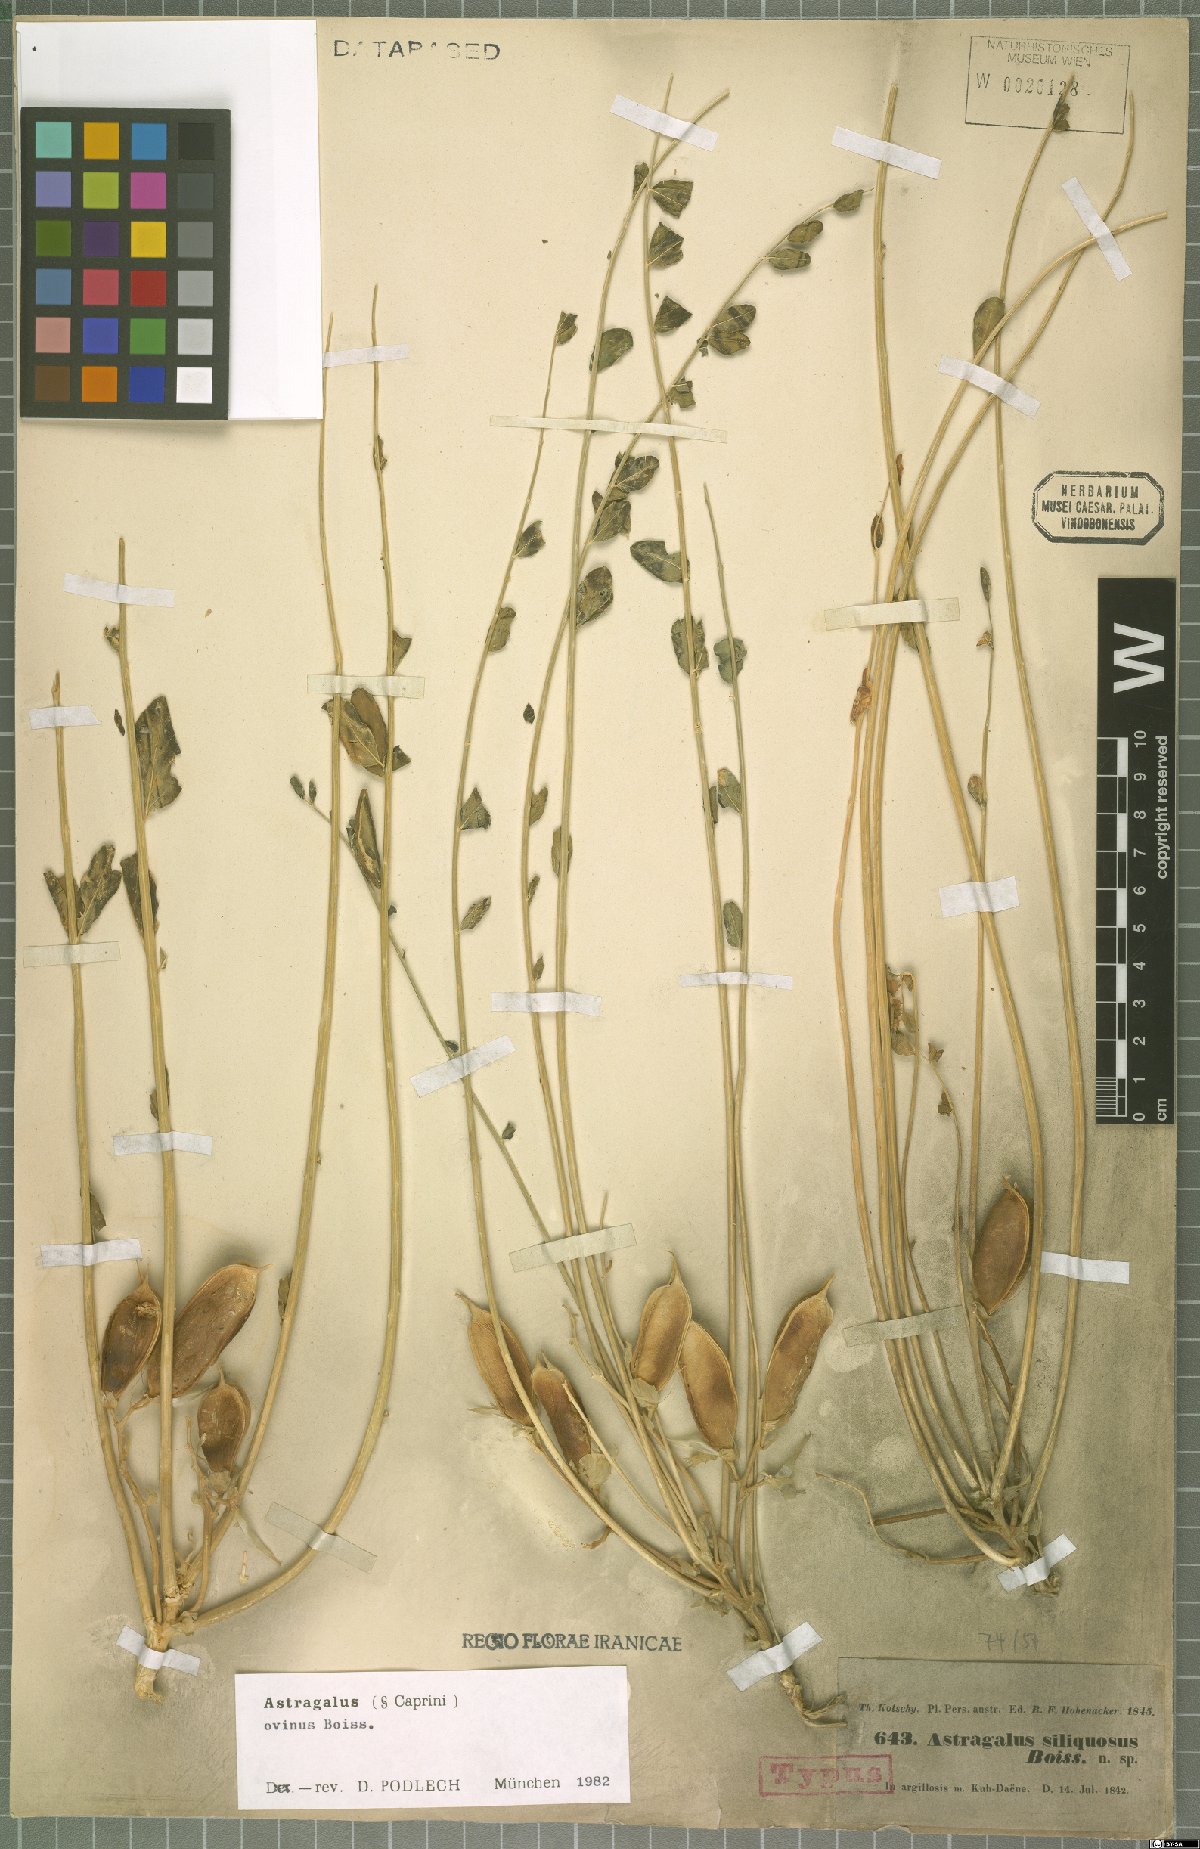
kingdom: Plantae
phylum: Tracheophyta
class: Magnoliopsida
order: Fabales
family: Fabaceae
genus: Astragalus
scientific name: Astragalus ovinus
